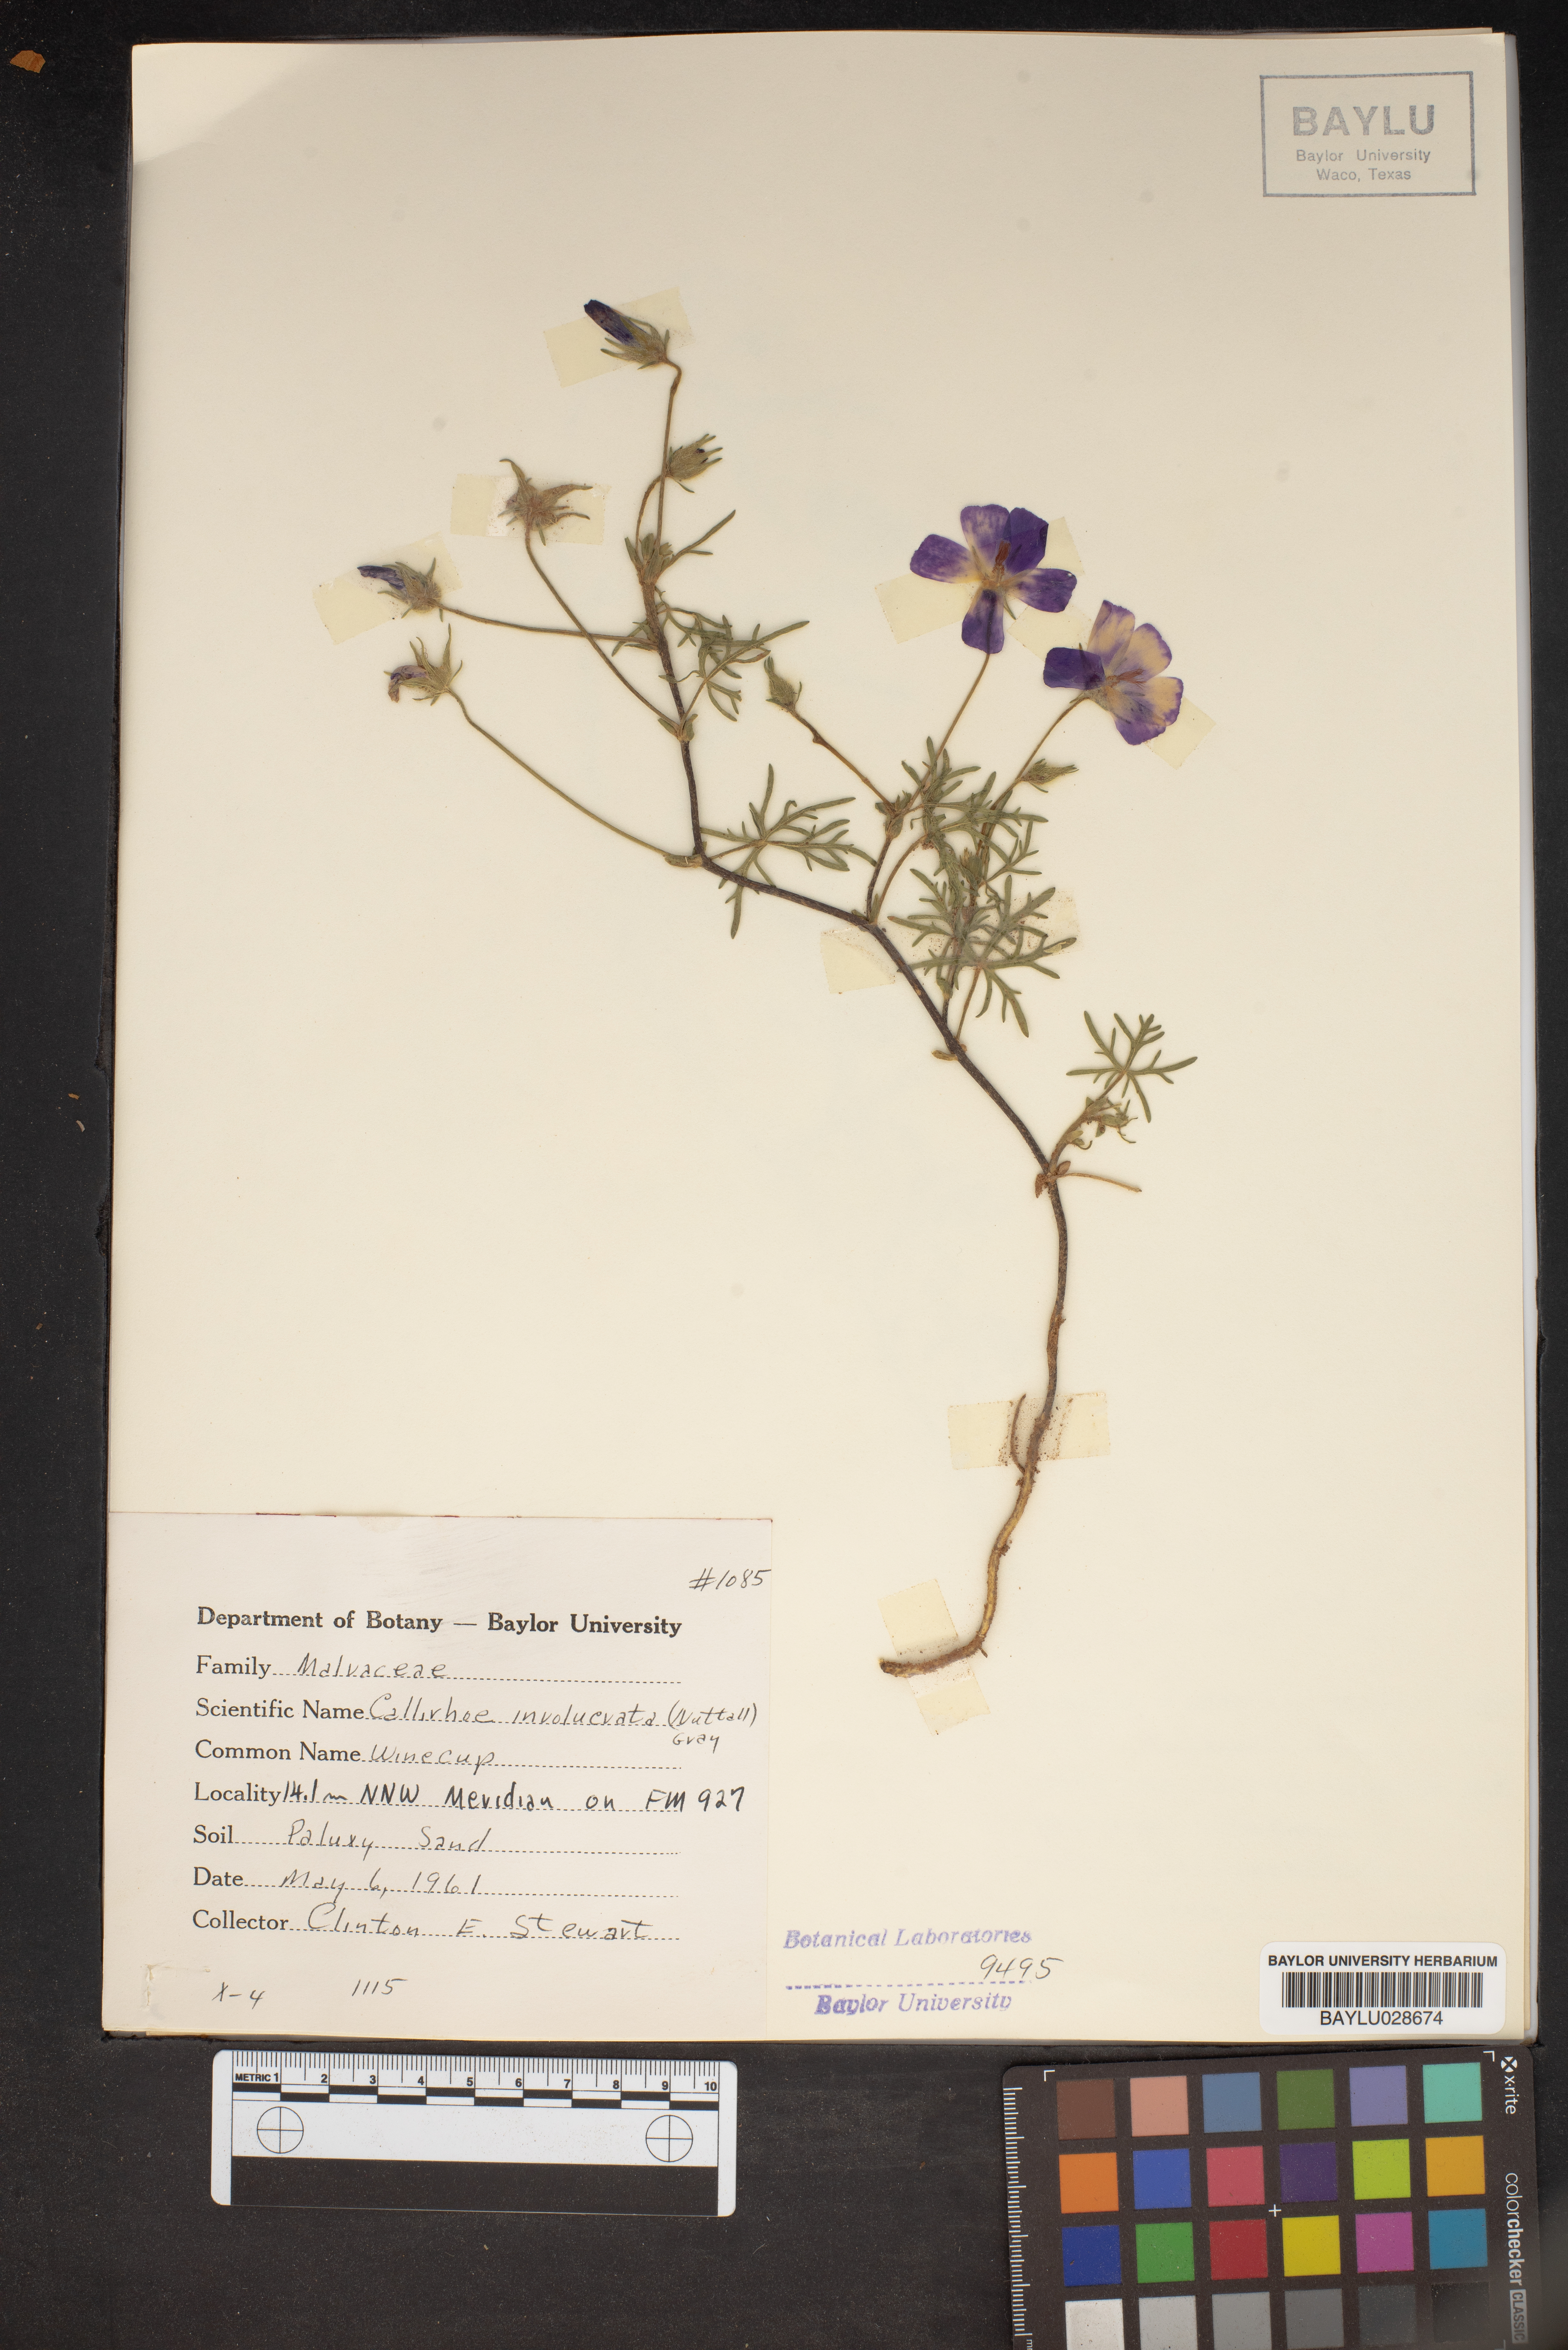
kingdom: Plantae
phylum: Tracheophyta
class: Magnoliopsida
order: Malvales
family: Malvaceae
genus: Callirhoe
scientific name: Callirhoe involucrata
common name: Purple poppy-mallow
